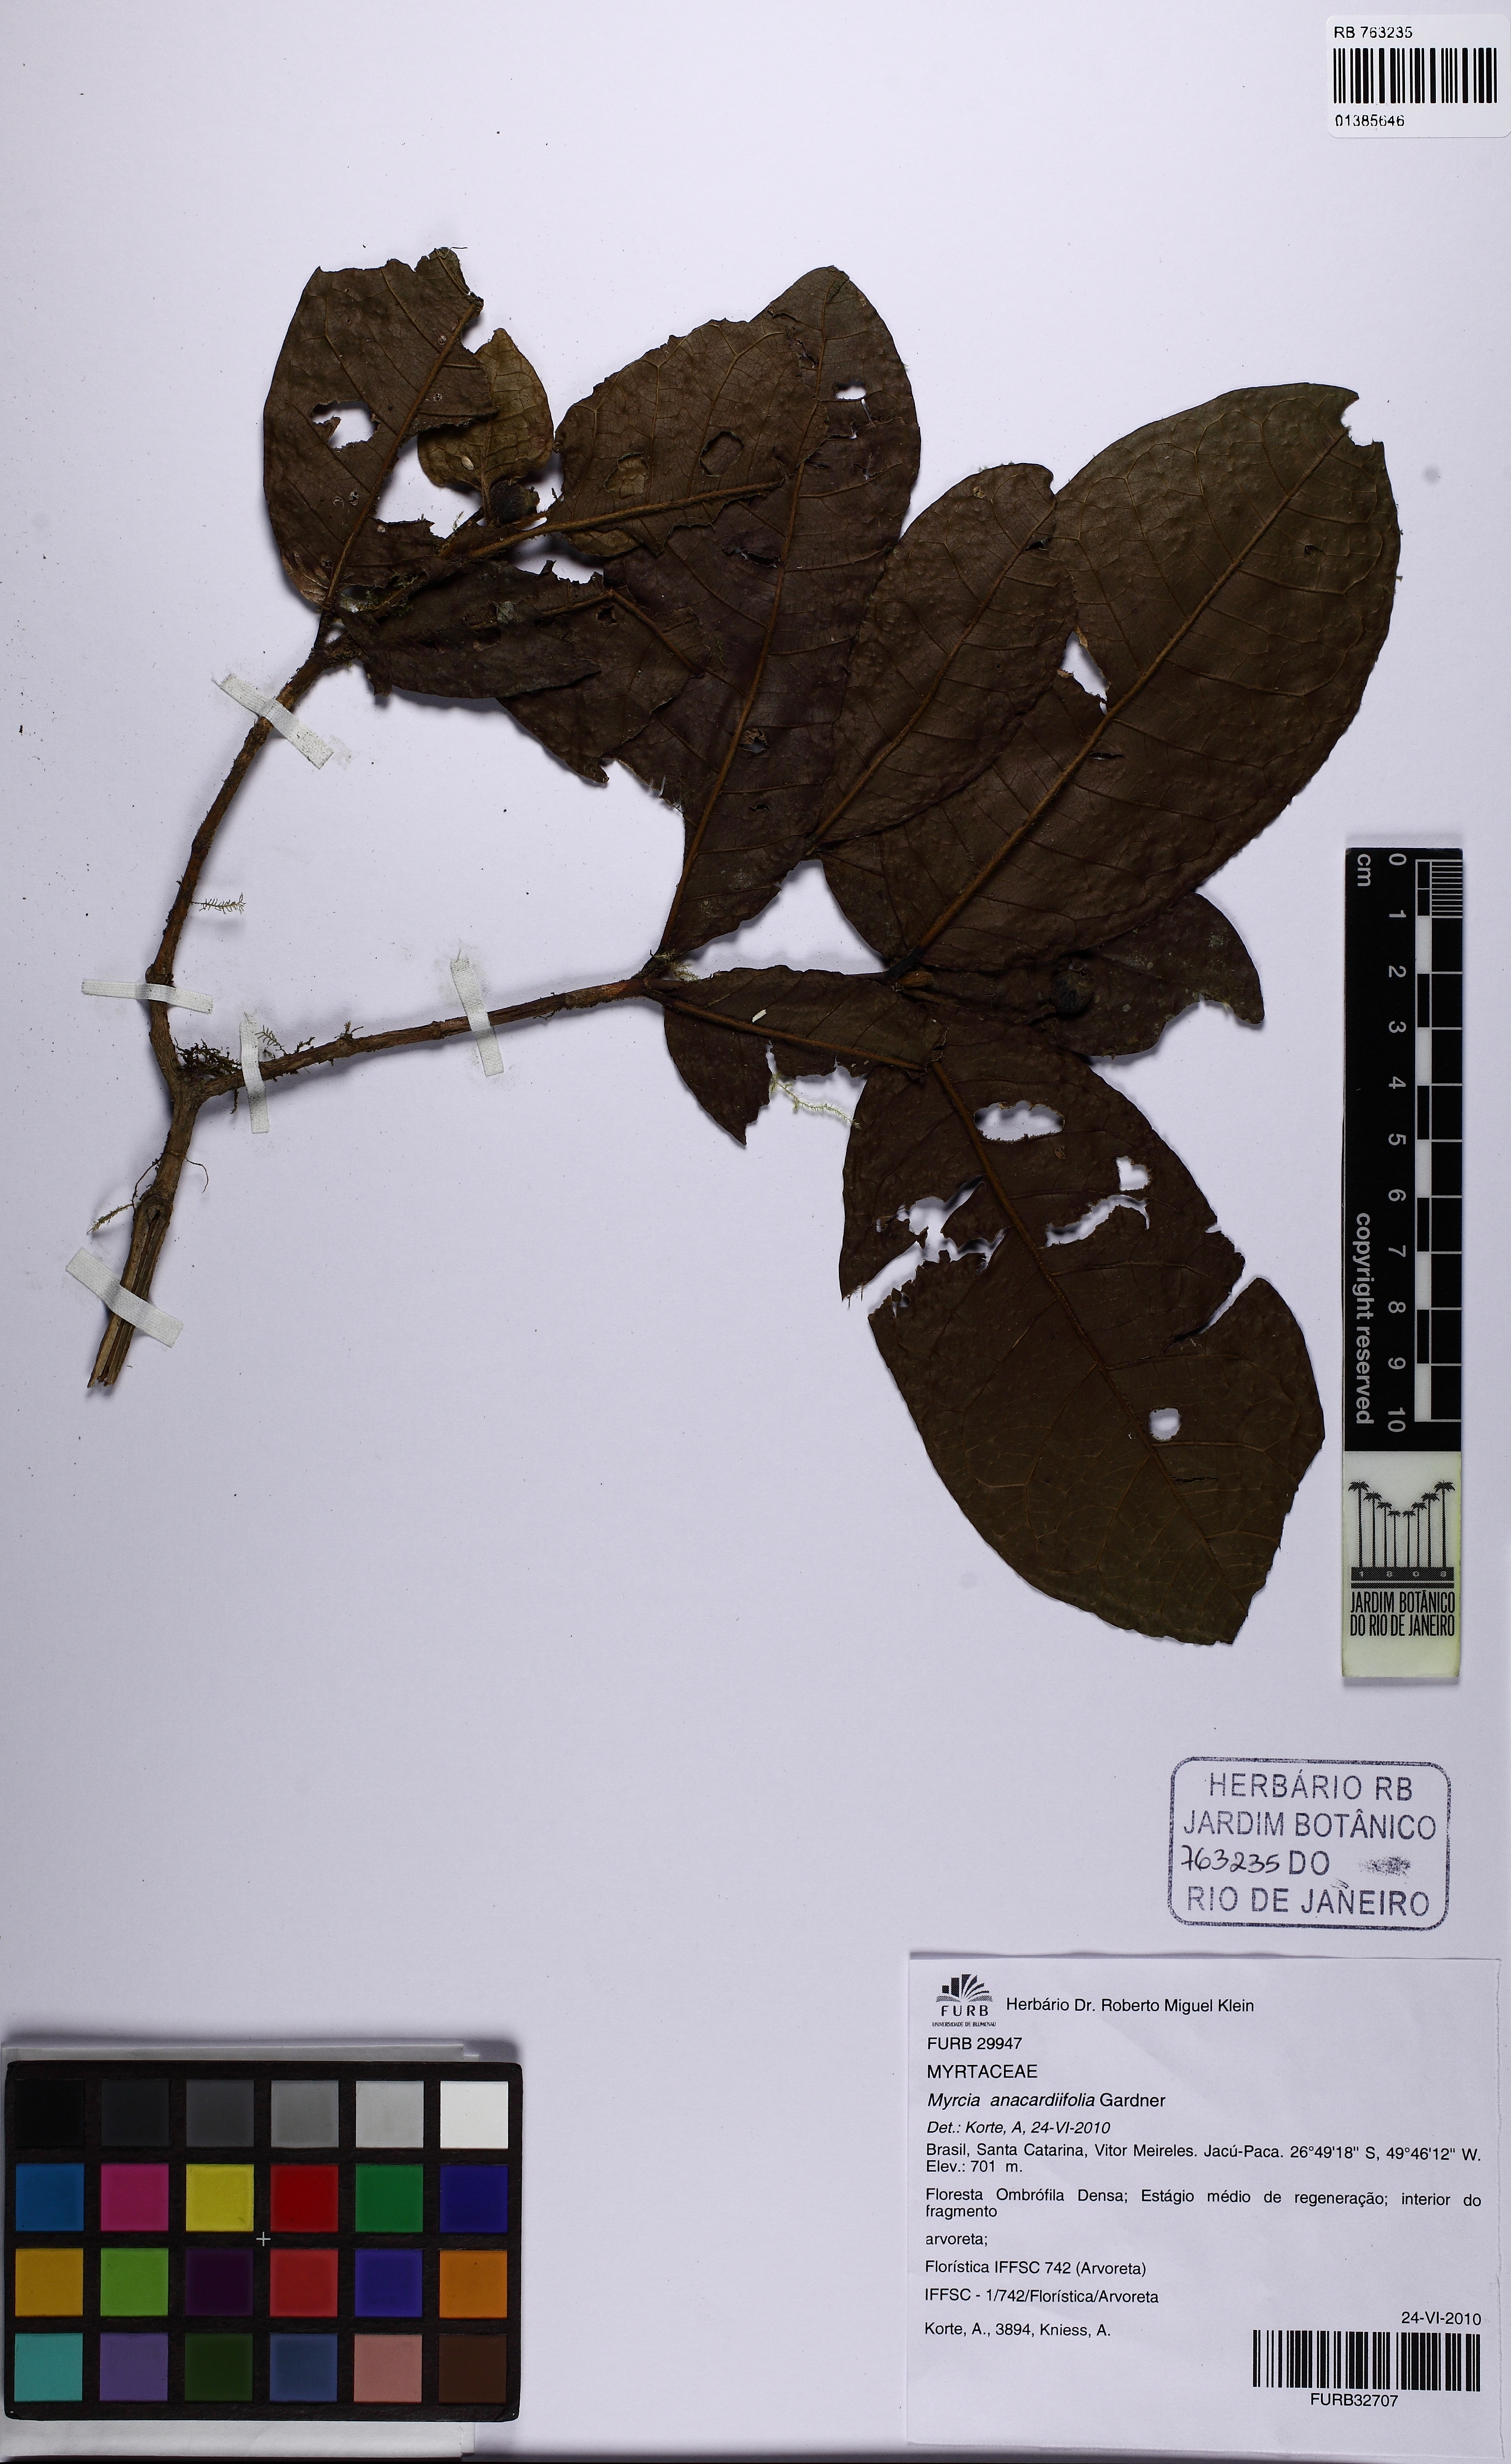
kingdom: Plantae
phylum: Tracheophyta
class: Magnoliopsida
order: Myrtales
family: Myrtaceae
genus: Myrcia
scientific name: Myrcia anacardiifolia
